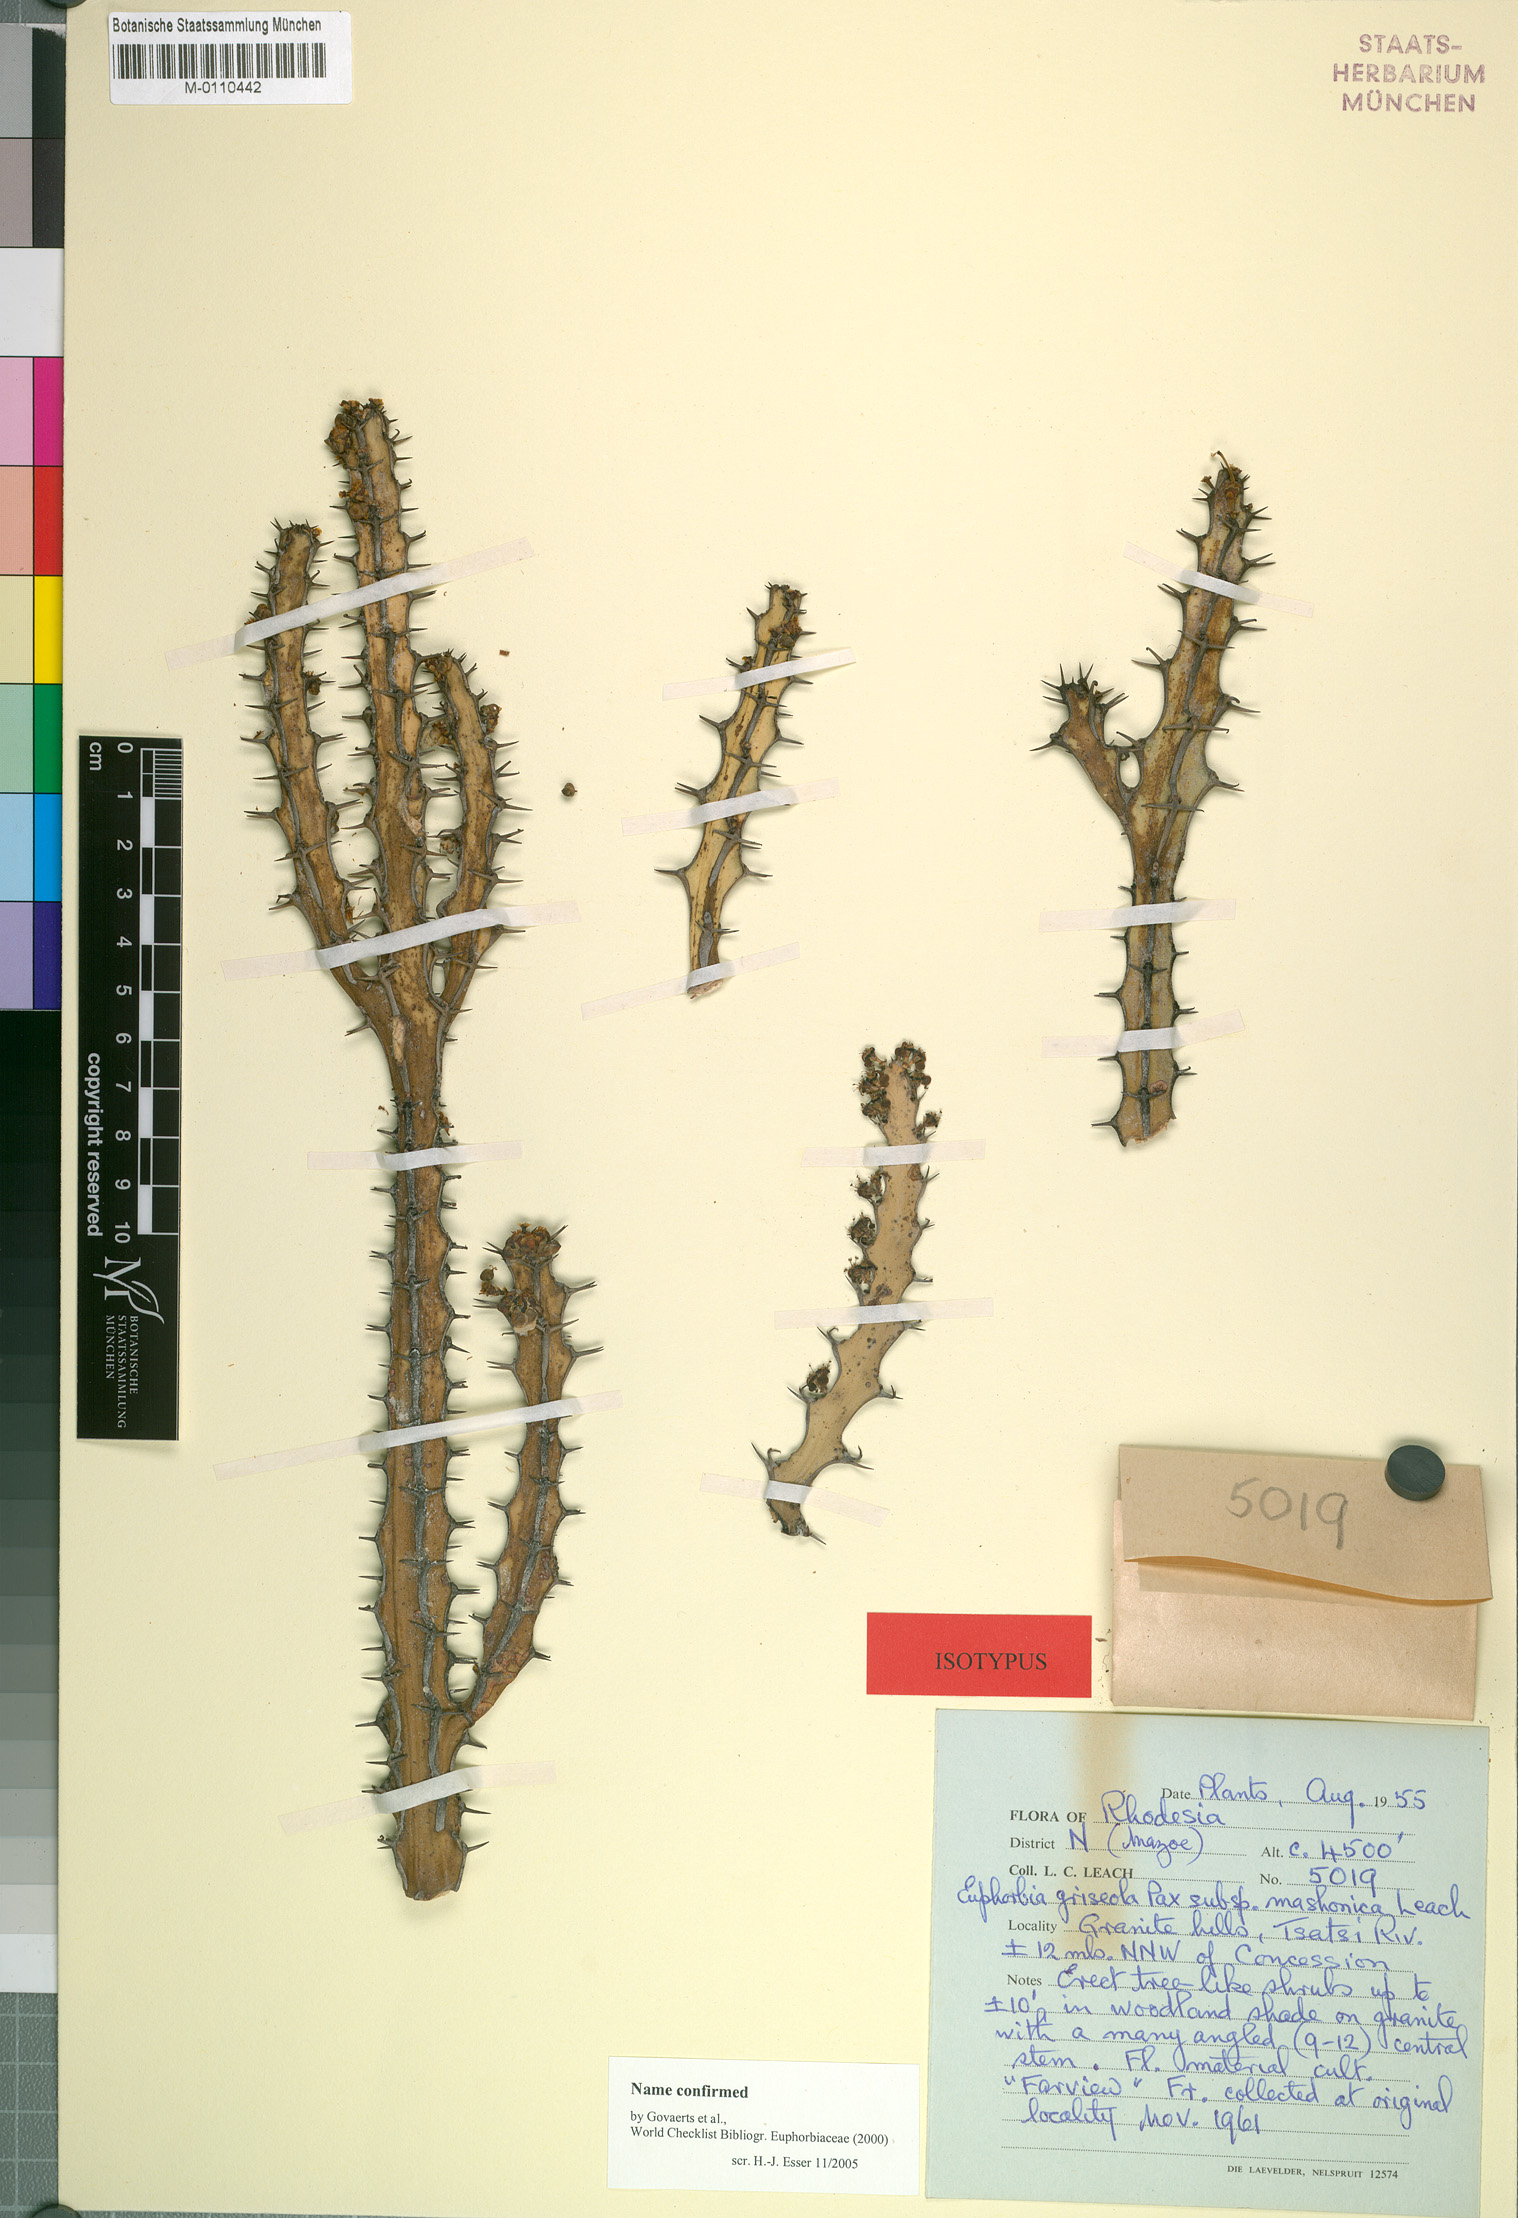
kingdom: Plantae
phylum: Tracheophyta
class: Magnoliopsida
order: Malpighiales
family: Euphorbiaceae
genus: Euphorbia
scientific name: Euphorbia griseola
